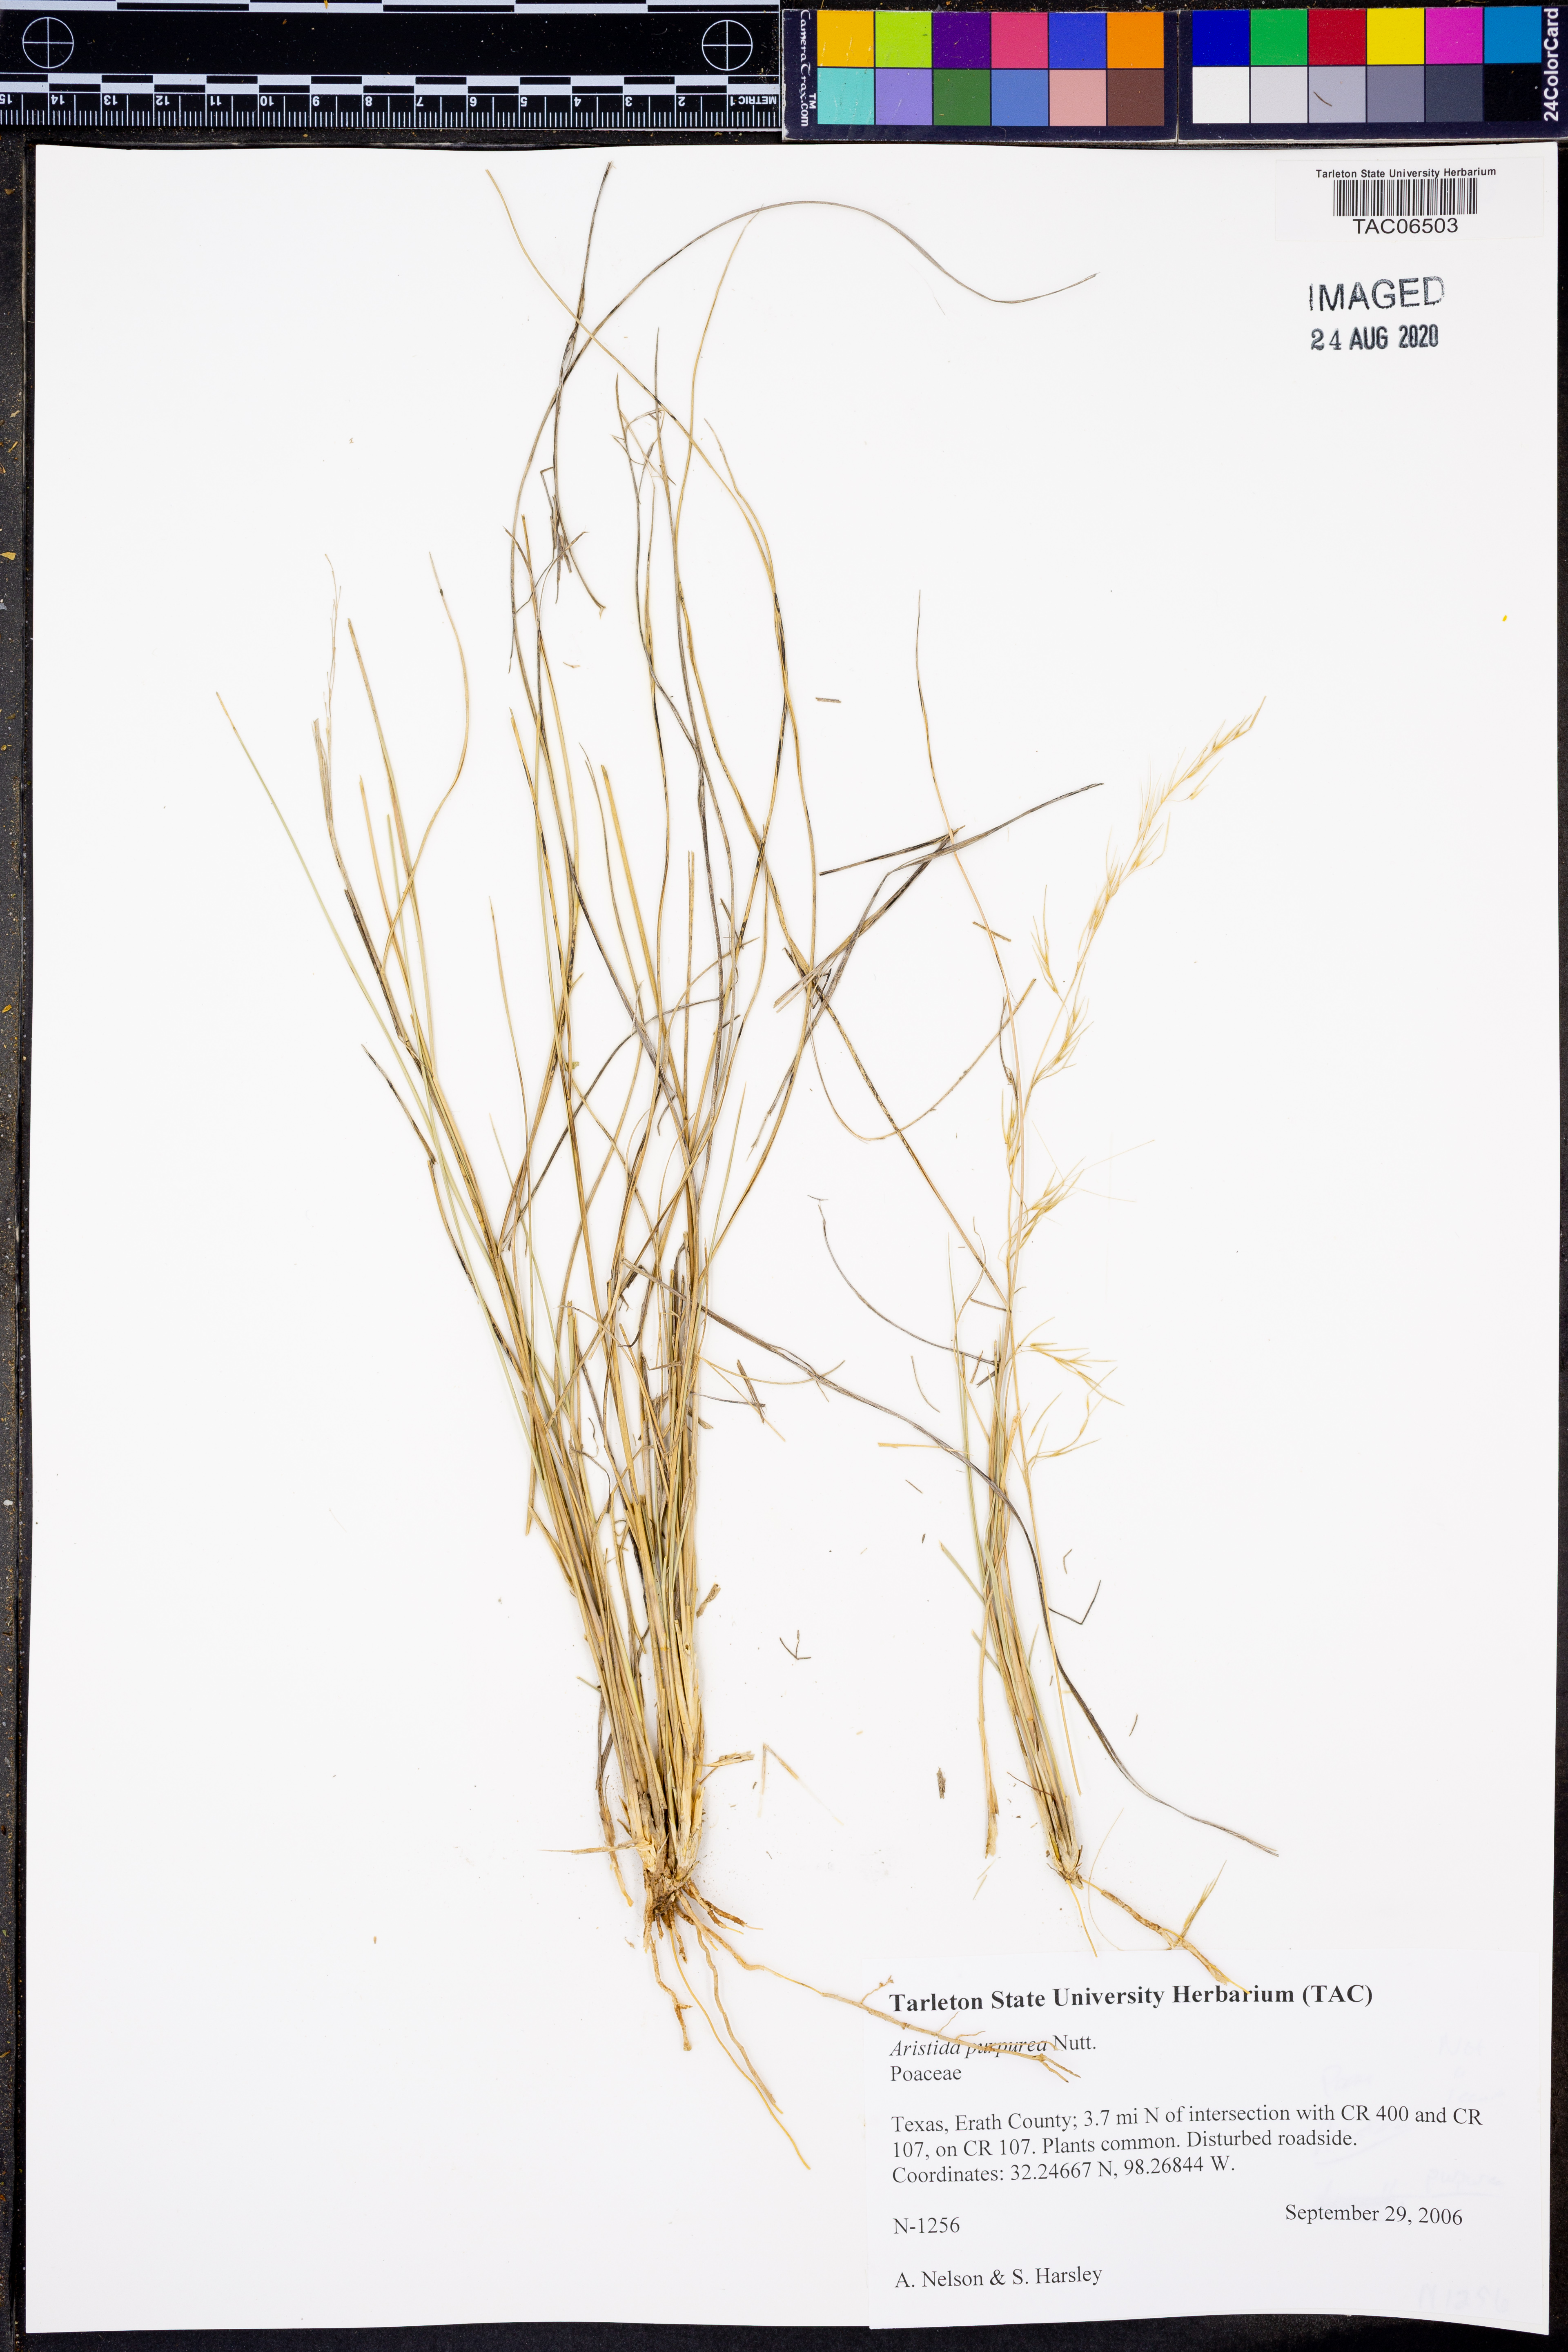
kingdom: Plantae
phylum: Tracheophyta
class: Liliopsida
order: Poales
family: Poaceae
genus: Aristida
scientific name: Aristida purpurea
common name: Purple threeawn
